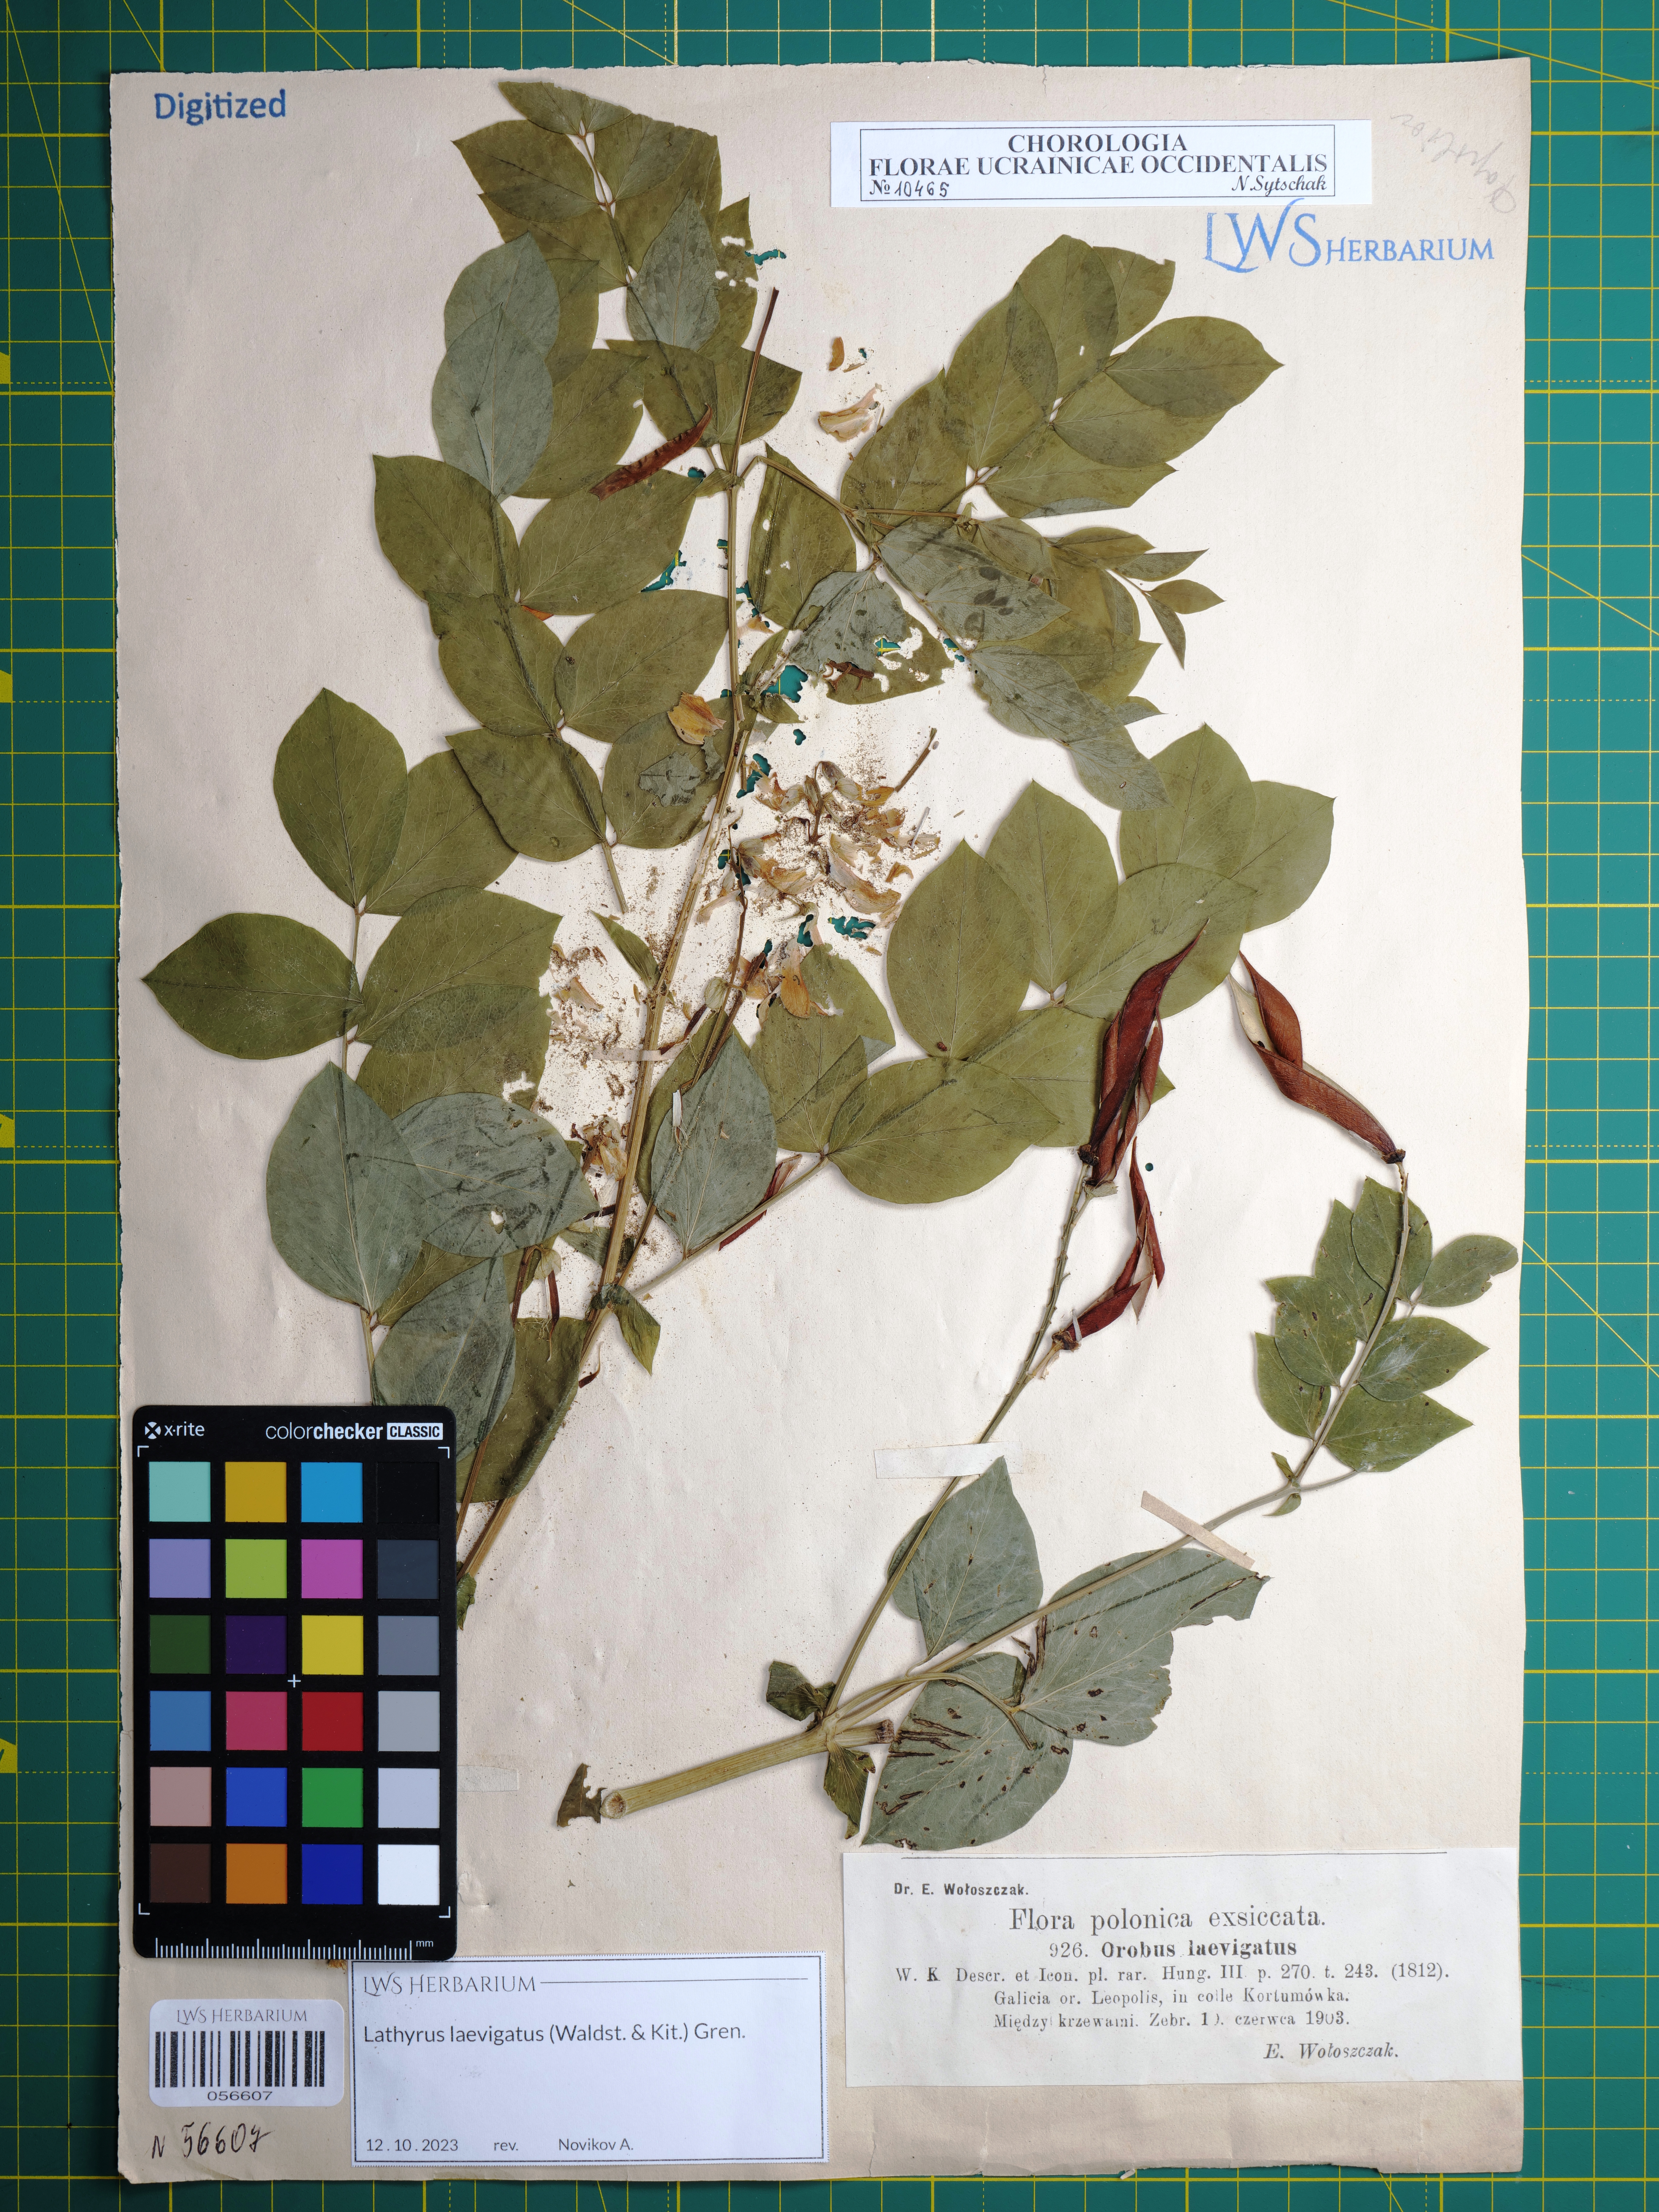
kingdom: Plantae
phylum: Tracheophyta
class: Magnoliopsida
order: Fabales
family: Fabaceae
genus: Lathyrus
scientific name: Lathyrus laevigatus
